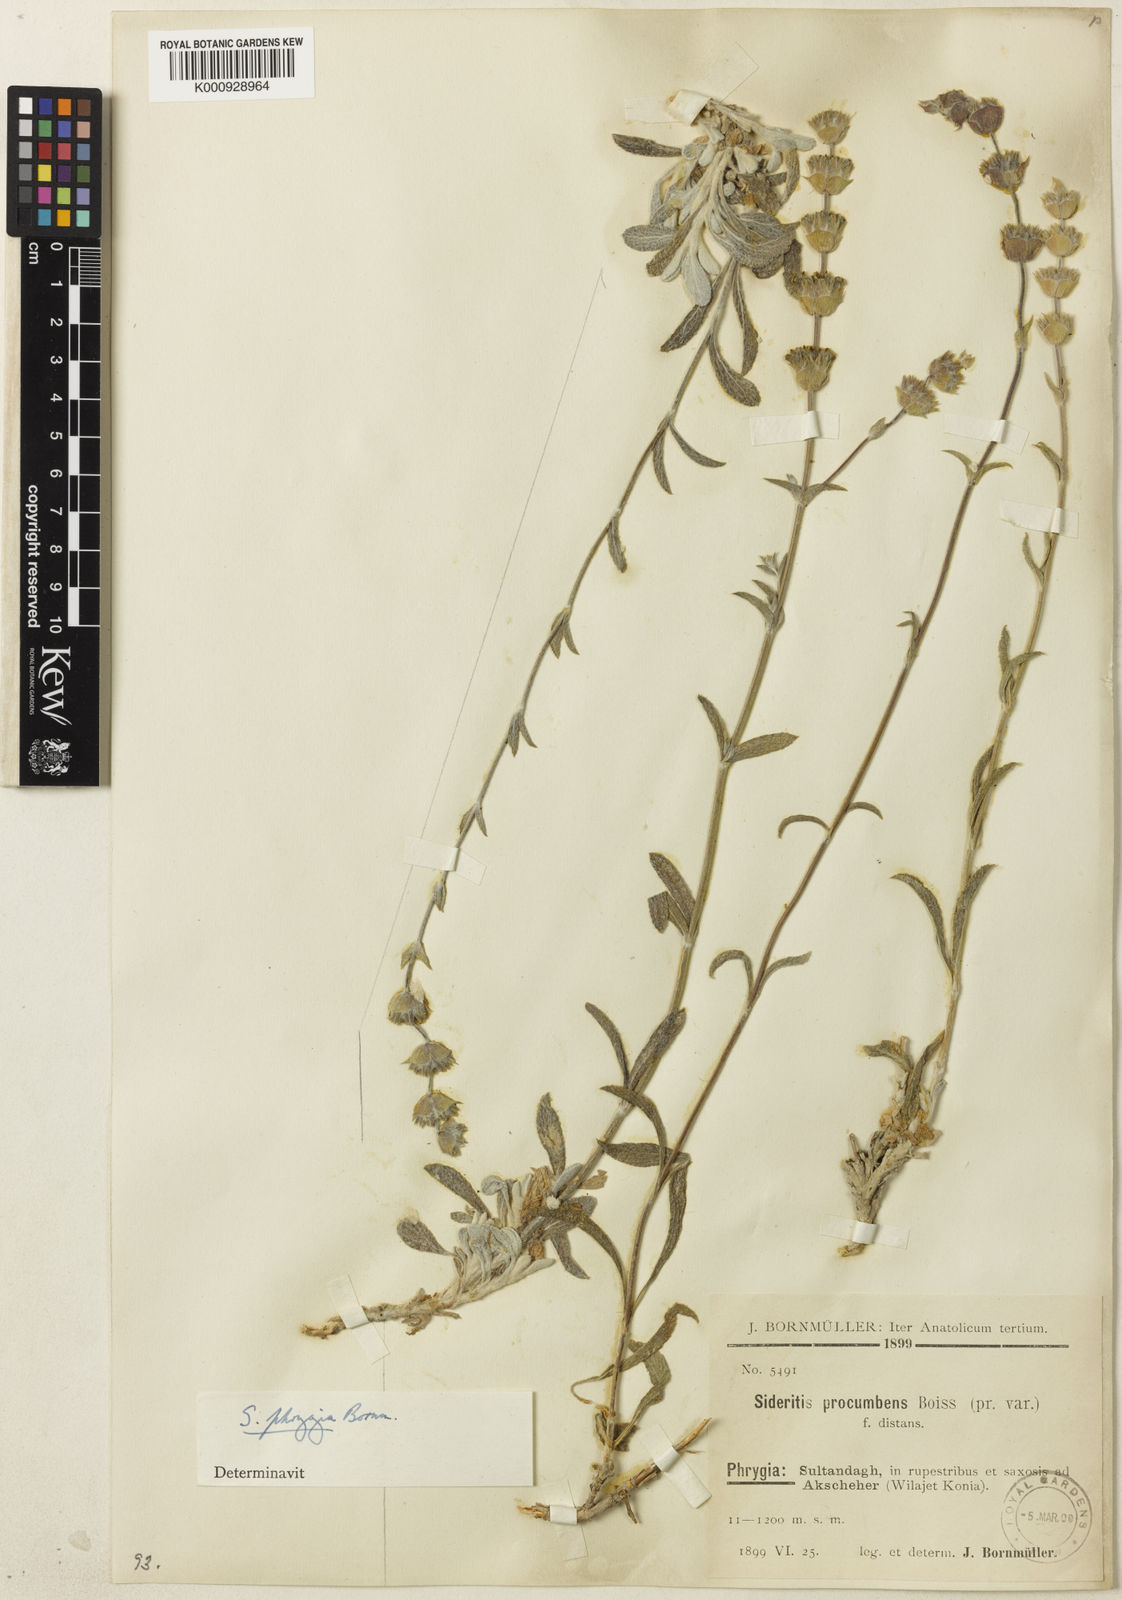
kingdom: Plantae
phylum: Tracheophyta
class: Magnoliopsida
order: Lamiales
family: Lamiaceae
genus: Sideritis
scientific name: Sideritis pisidica
